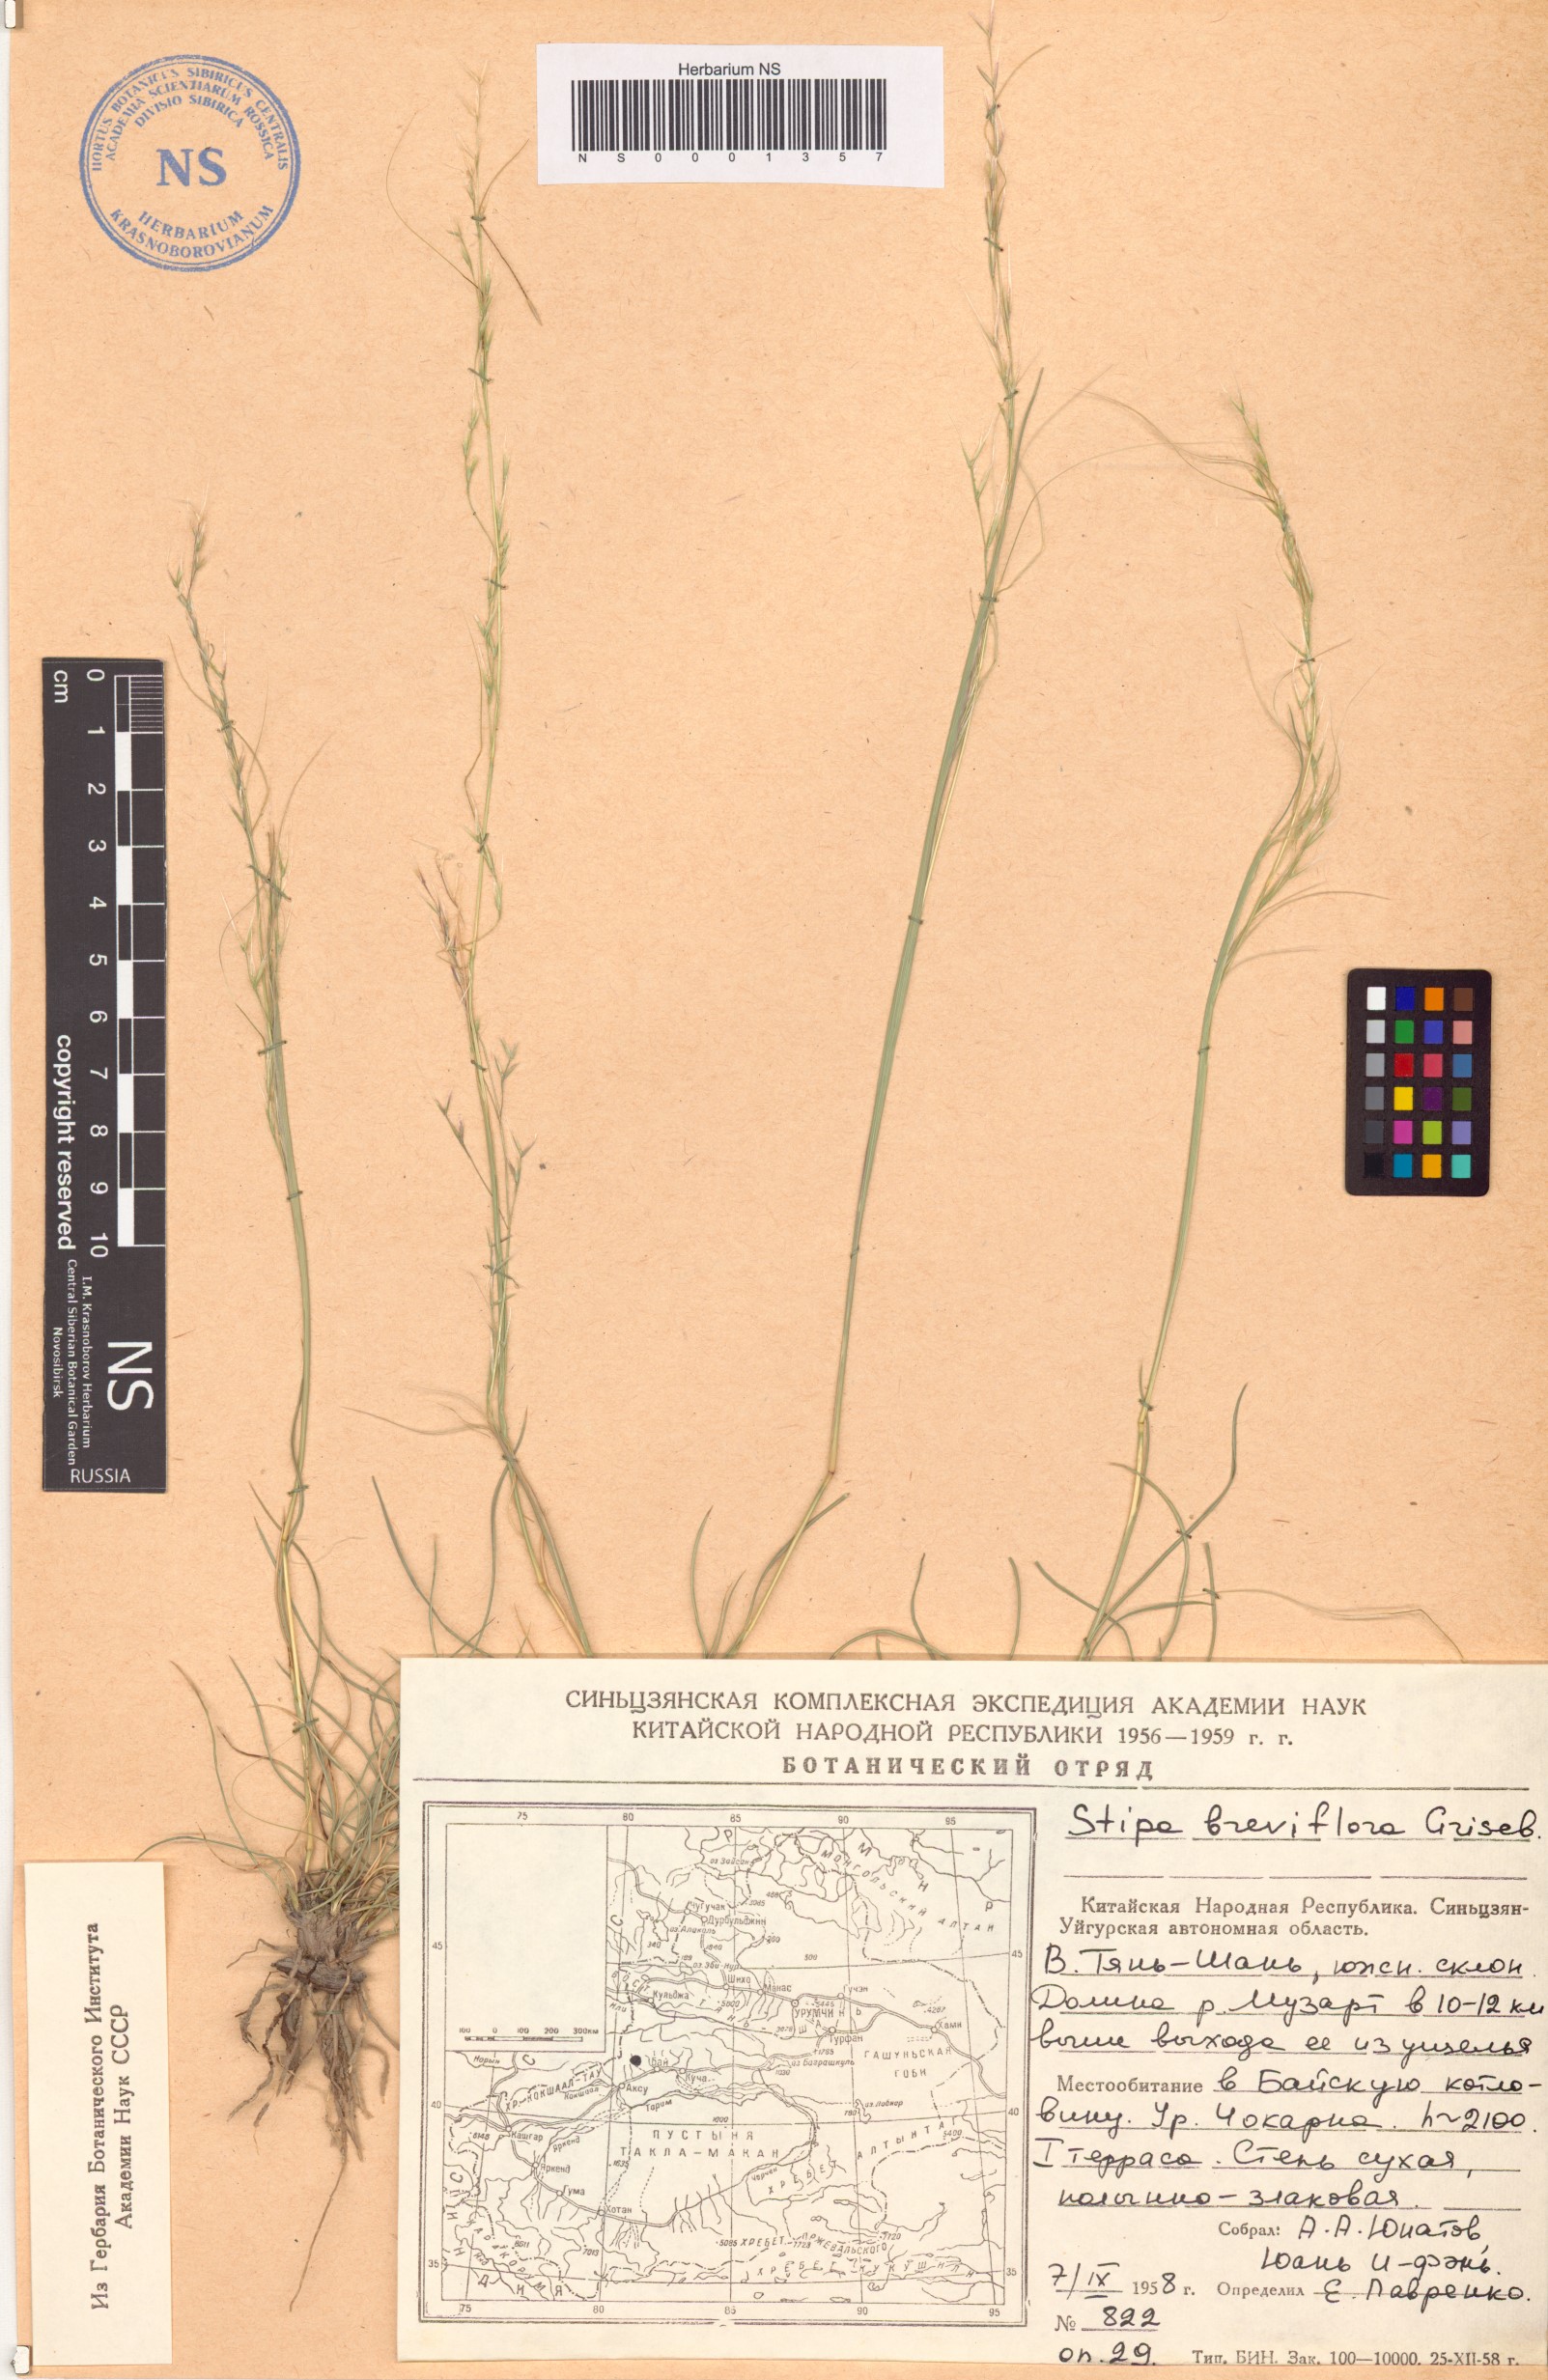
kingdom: Plantae
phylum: Tracheophyta
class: Liliopsida
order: Poales
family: Poaceae
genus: Stipa
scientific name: Stipa breviflora
